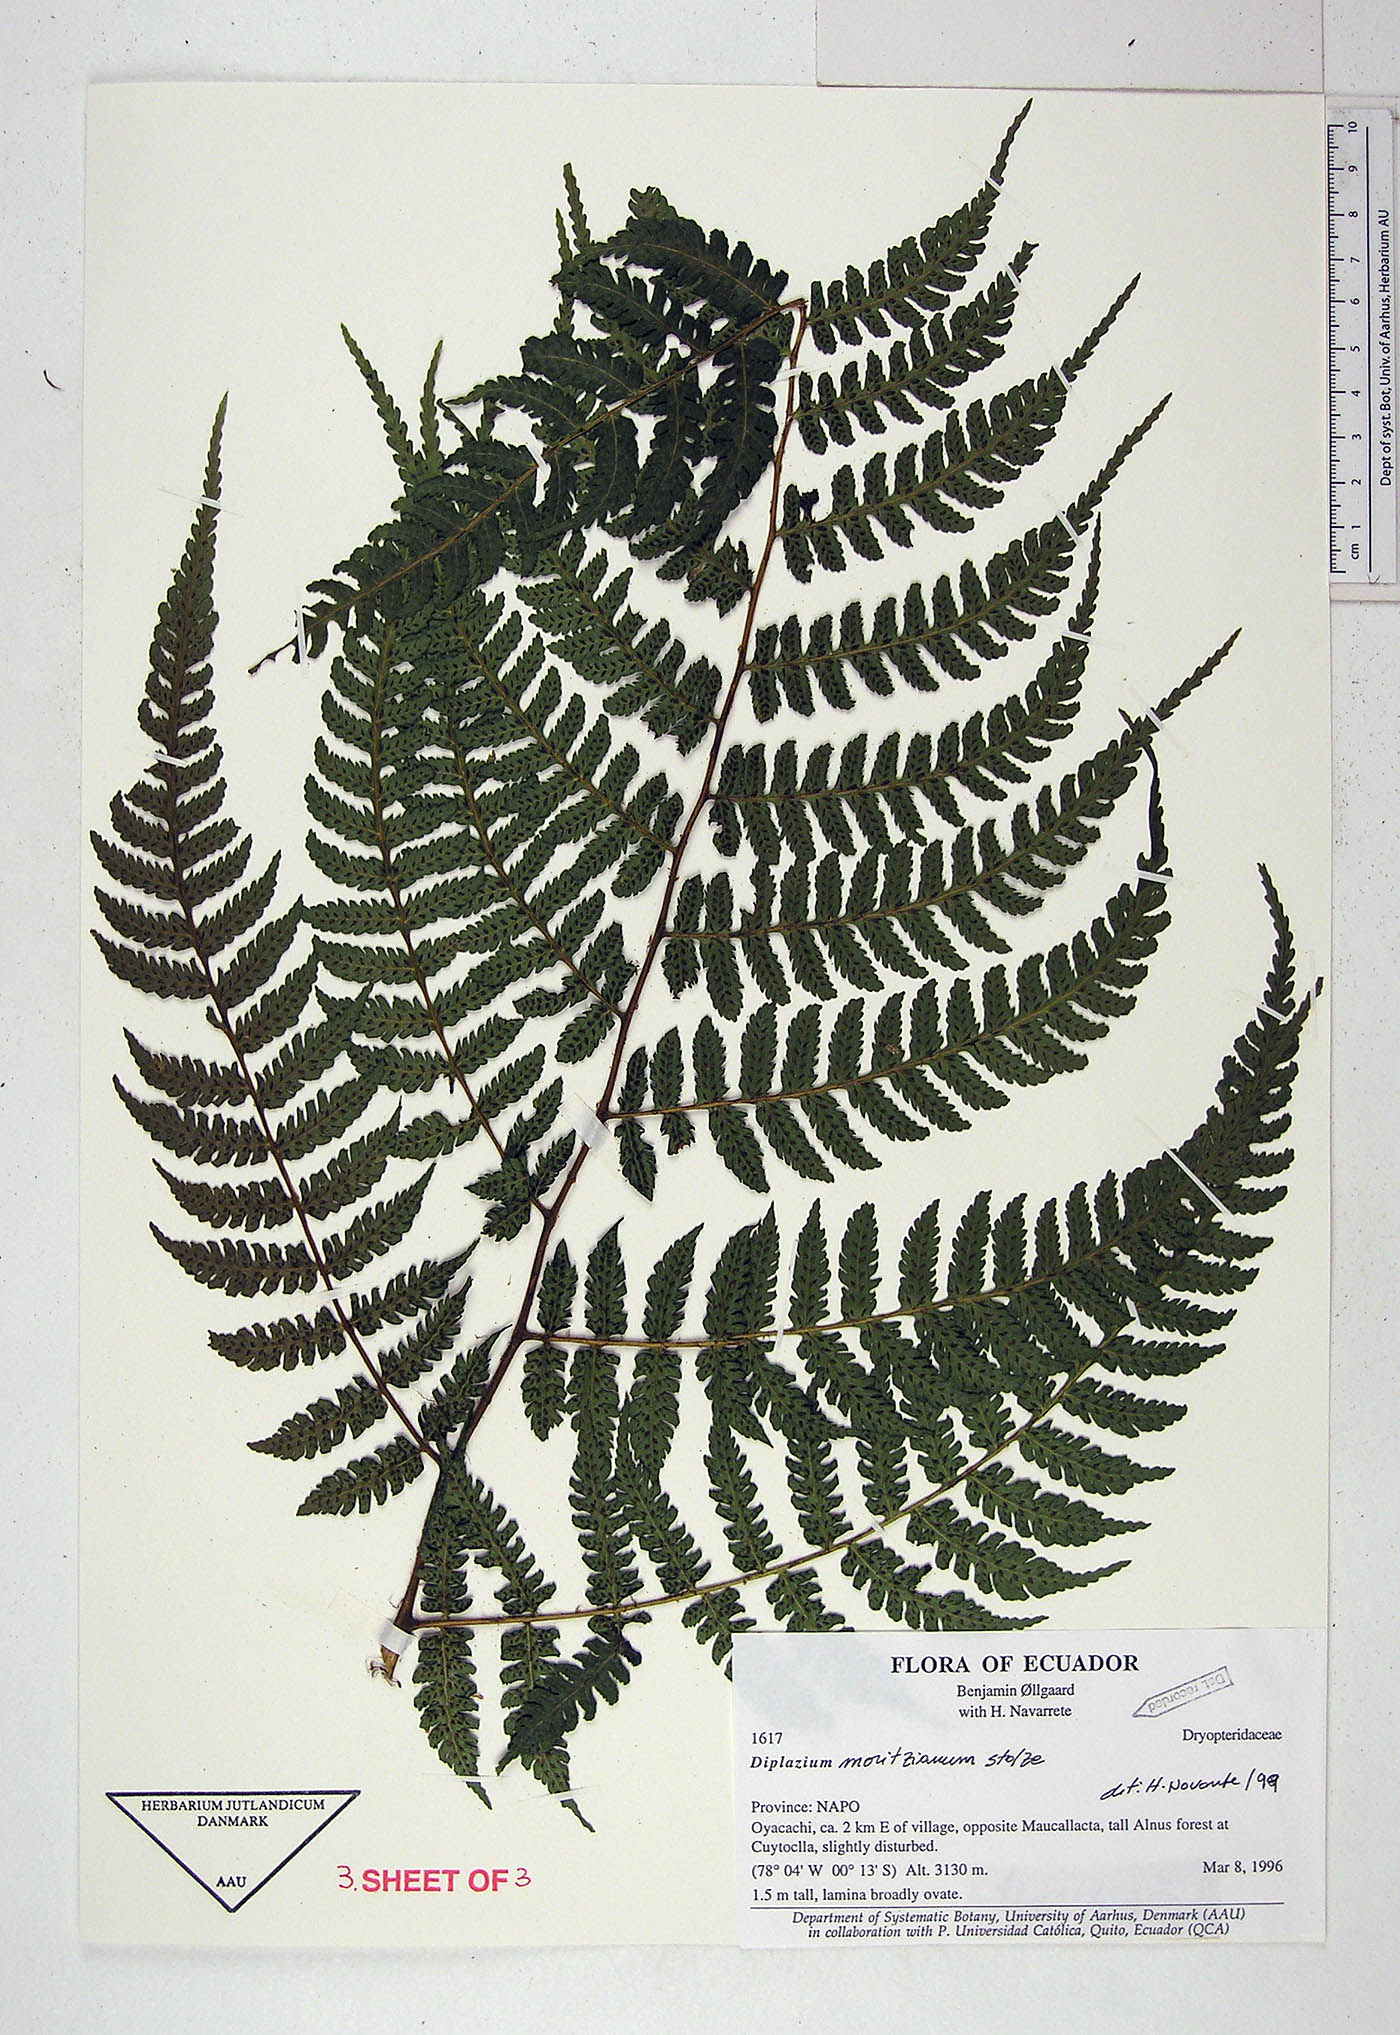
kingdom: Plantae
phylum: Tracheophyta
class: Polypodiopsida
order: Polypodiales
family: Athyriaceae
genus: Diplazium
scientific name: Diplazium moritzianum
